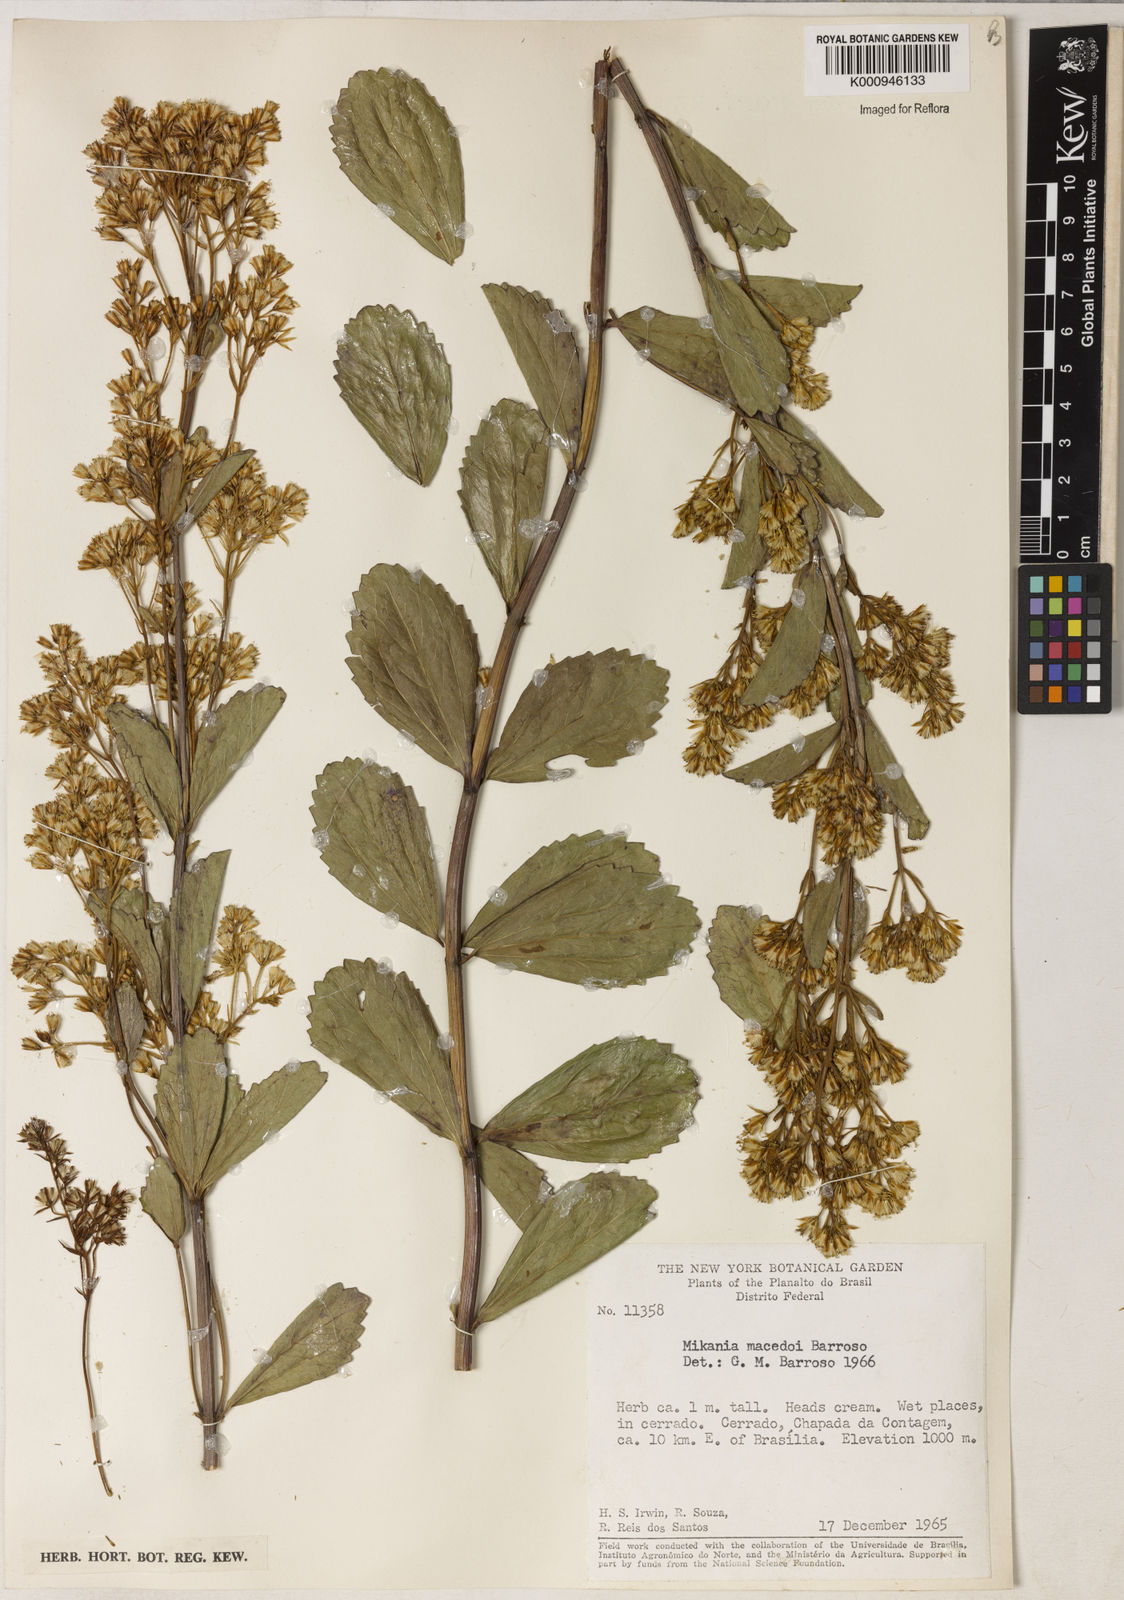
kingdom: Plantae
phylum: Tracheophyta
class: Magnoliopsida
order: Asterales
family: Asteraceae
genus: Mikania
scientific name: Mikania macedoi
